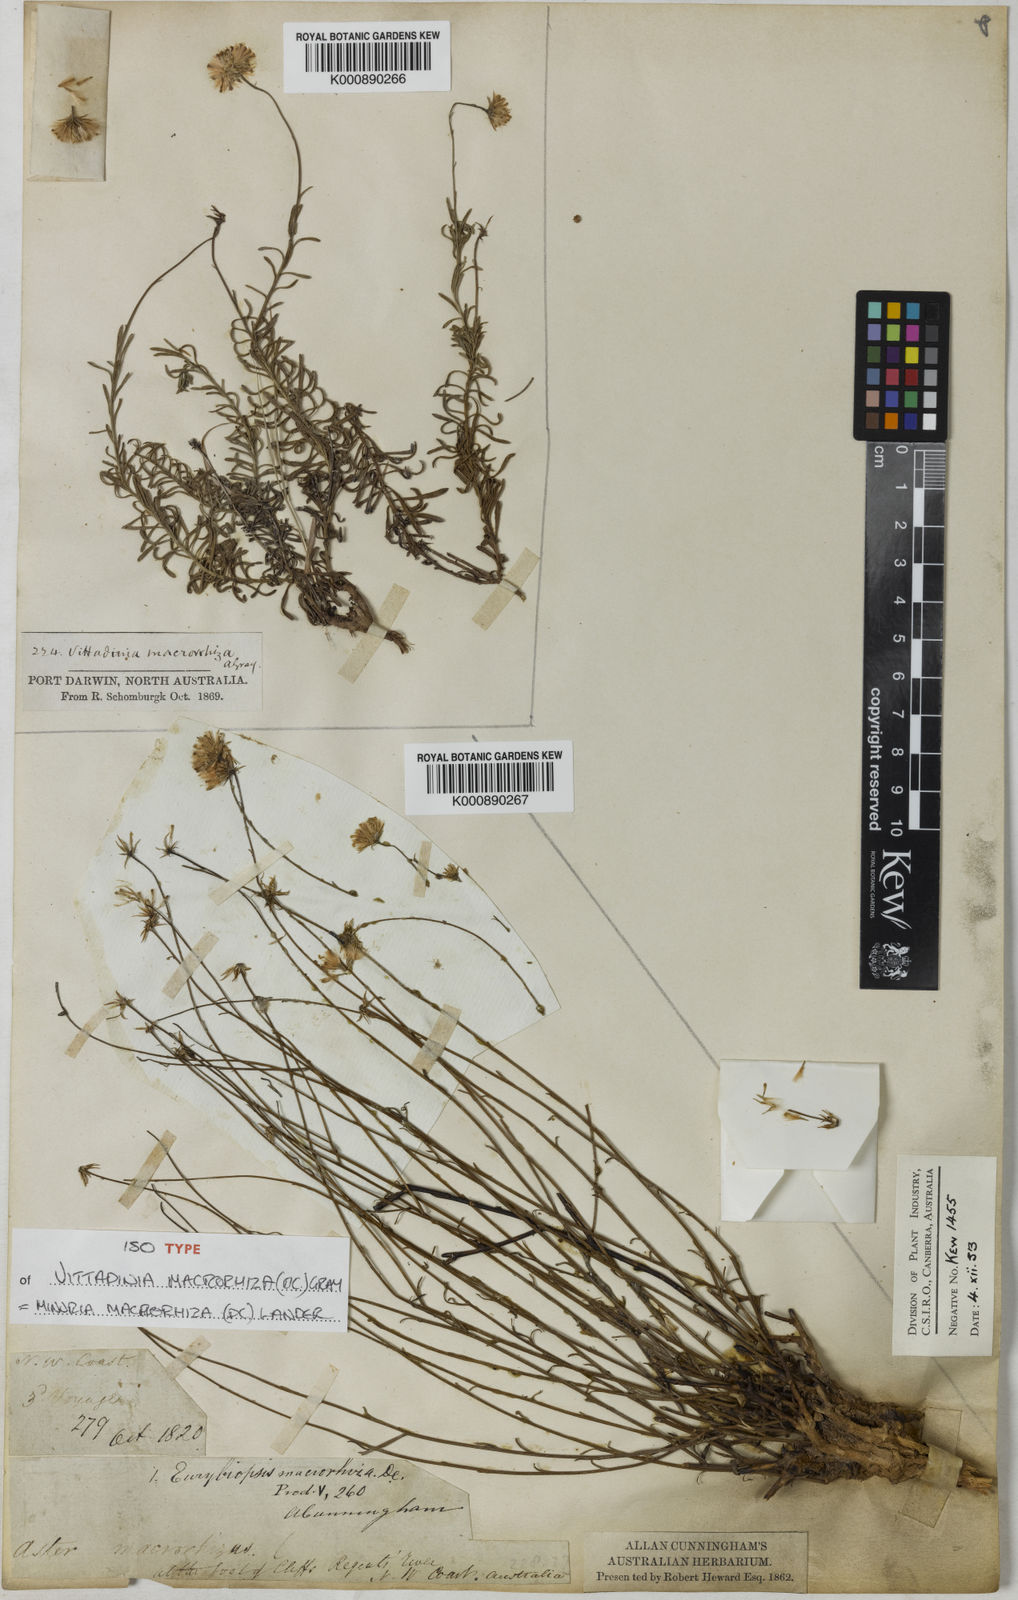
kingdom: Plantae
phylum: Tracheophyta
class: Magnoliopsida
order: Asterales
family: Asteraceae
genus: Minuria
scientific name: Minuria macrorhiza
